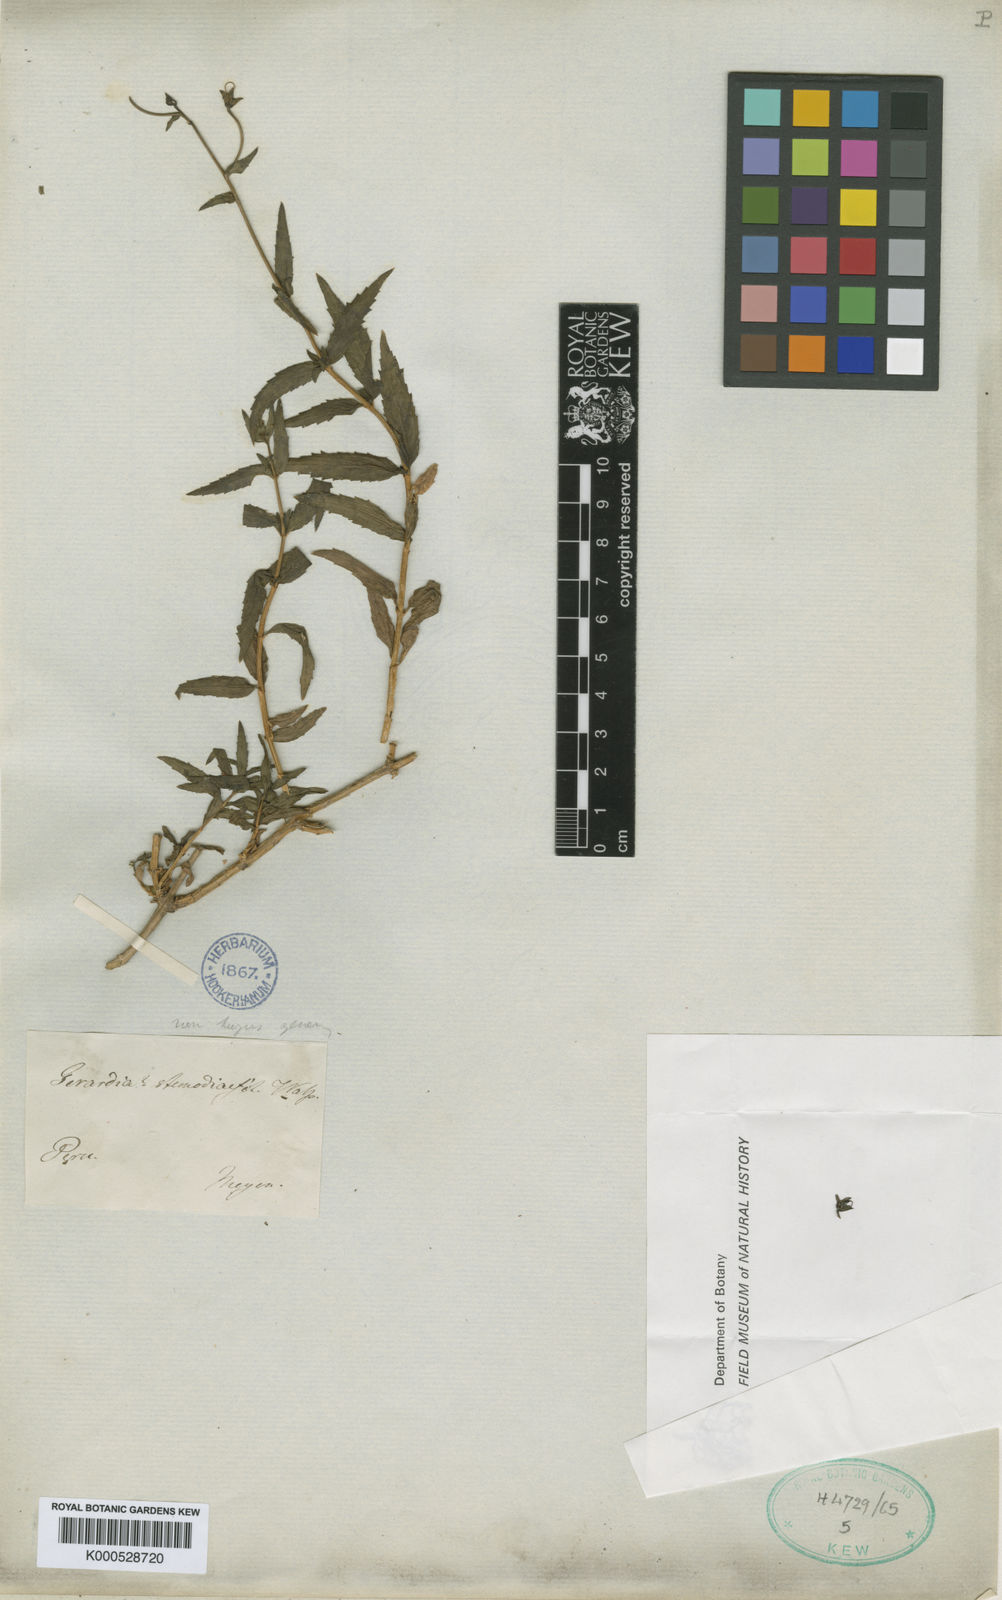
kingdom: Plantae
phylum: Tracheophyta
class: Magnoliopsida
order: Lamiales
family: Scrophulariaceae
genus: Alonsoa
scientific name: Alonsoa meridionalis
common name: Maskflower
